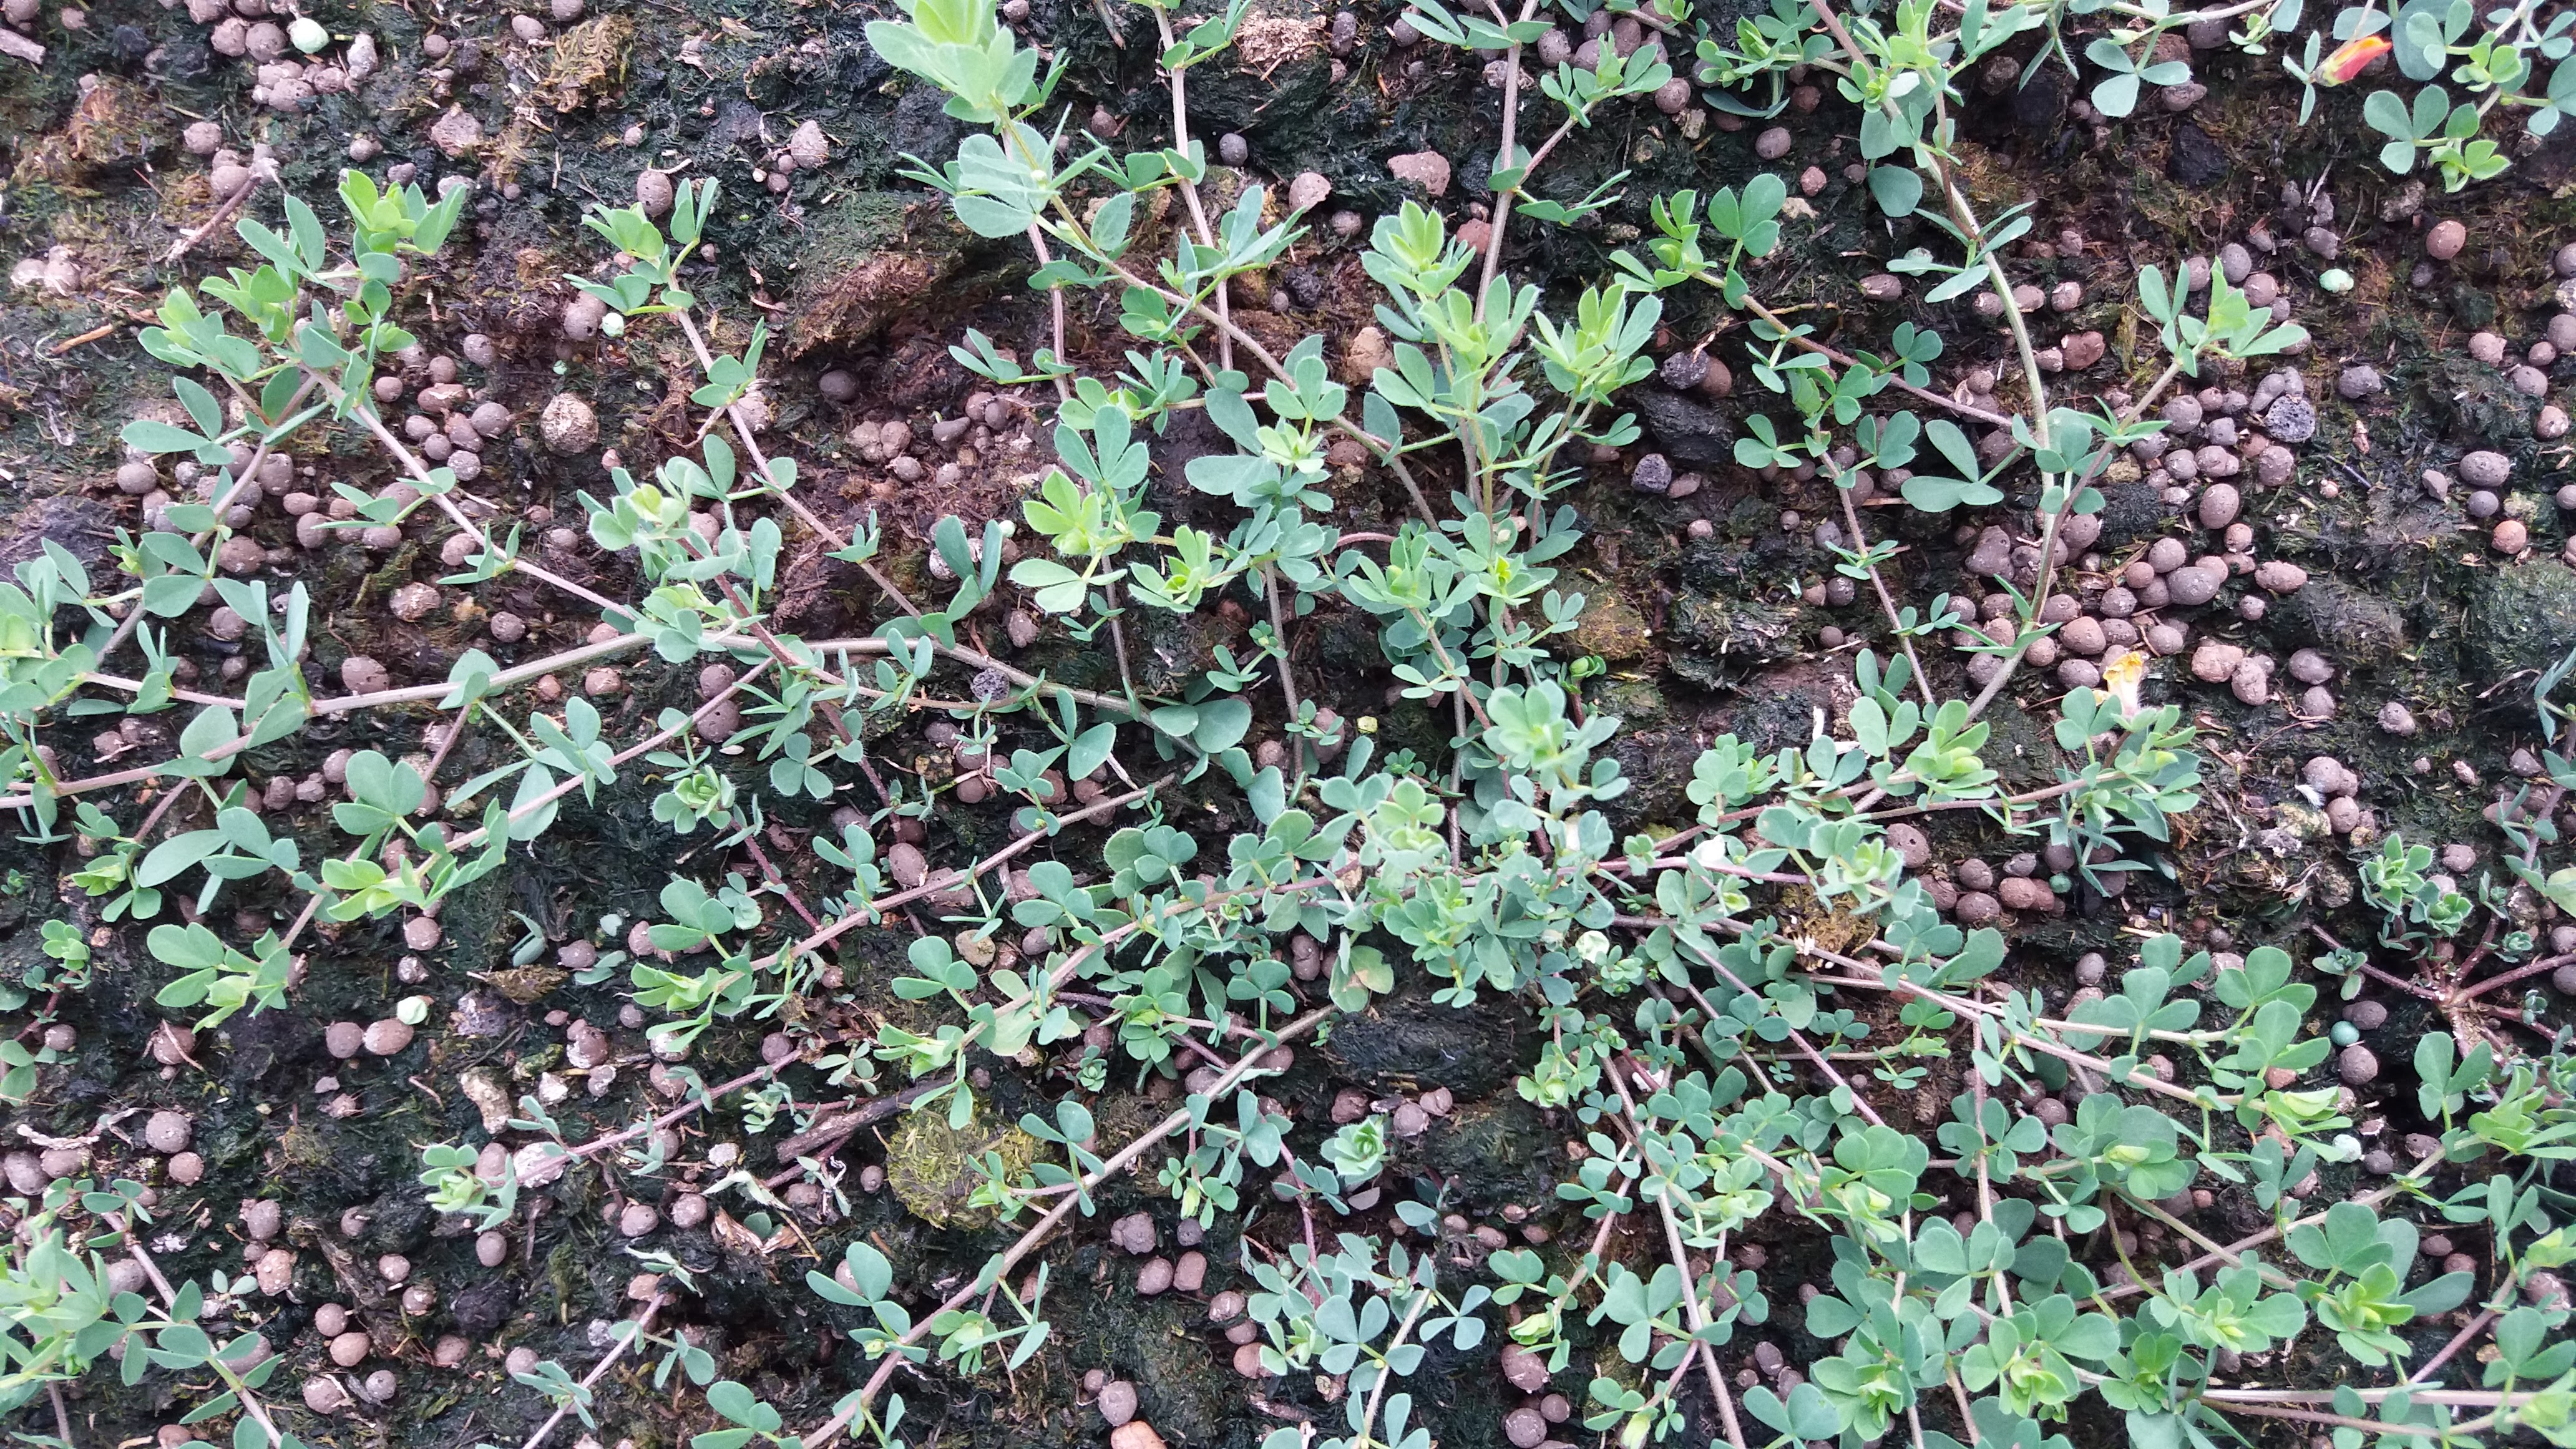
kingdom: Plantae
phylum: Tracheophyta
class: Magnoliopsida
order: Fabales
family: Fabaceae
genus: Lotus
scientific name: Lotus corniculatus
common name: Common bird's-foot-trefoil
